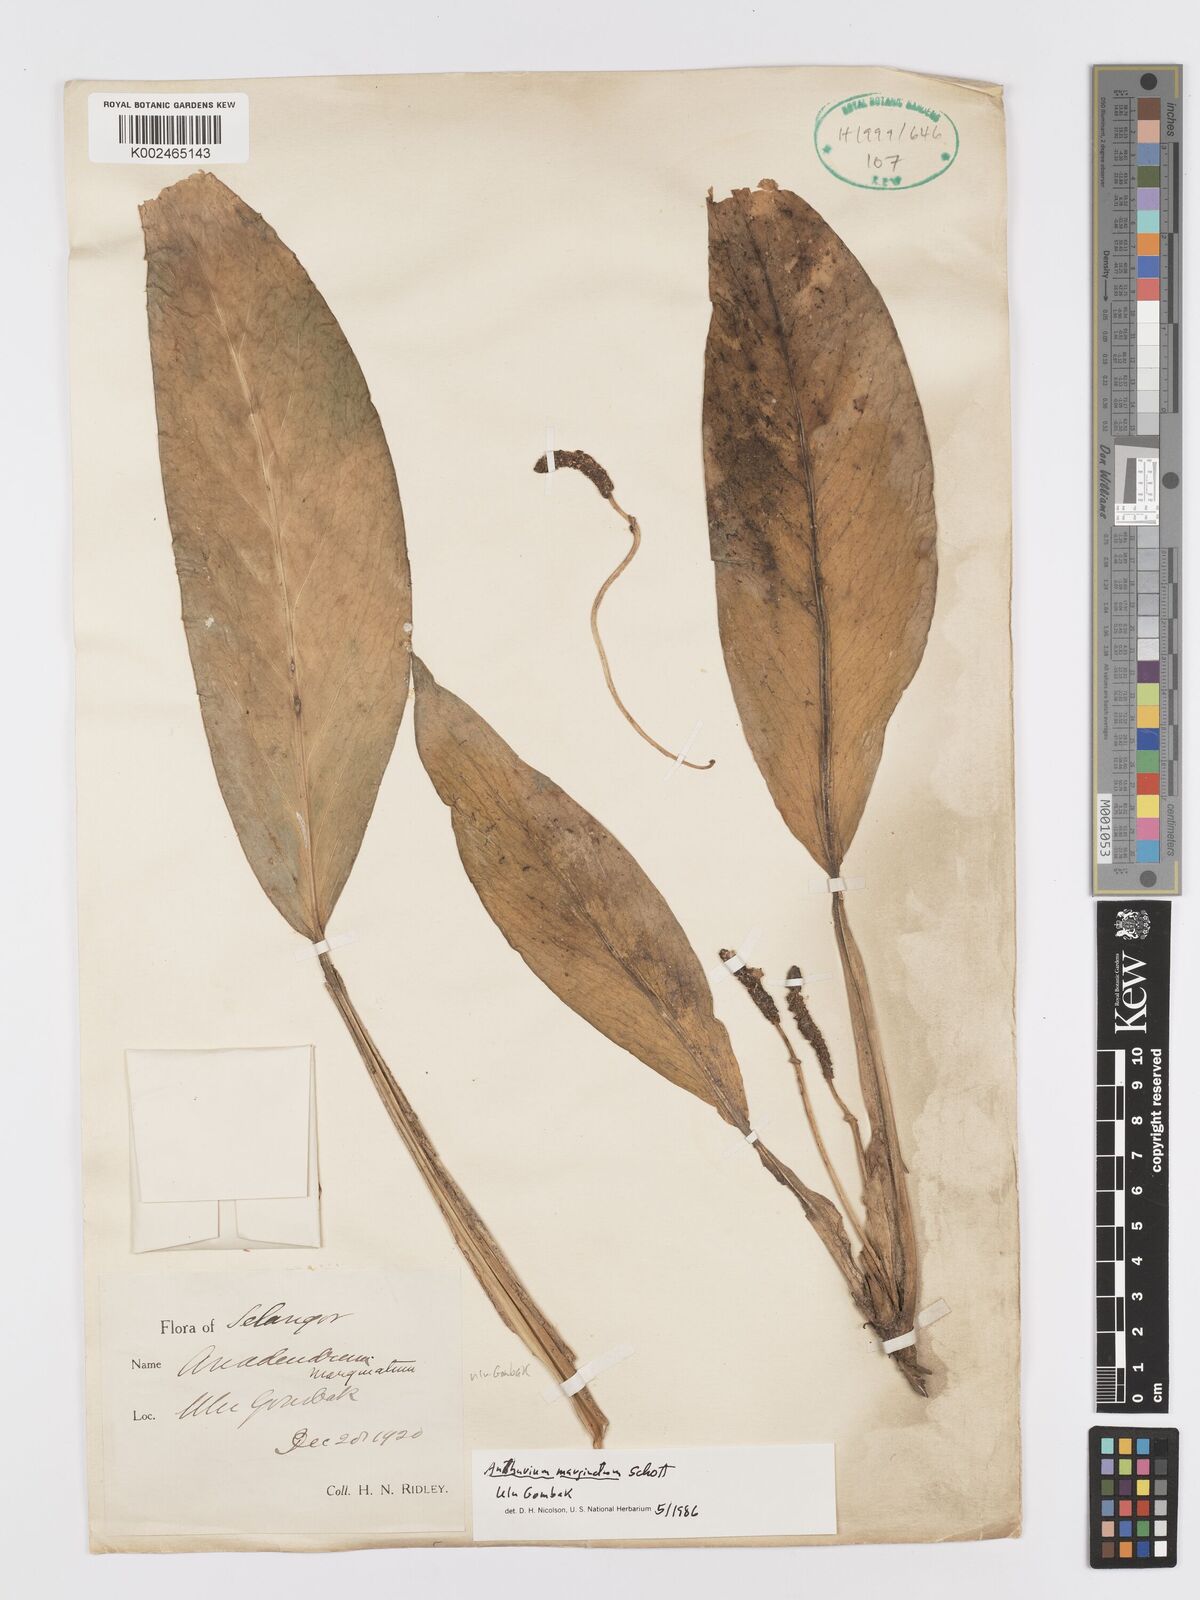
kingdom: Plantae
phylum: Tracheophyta
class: Liliopsida
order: Alismatales
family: Araceae
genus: Anadendrum
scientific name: Anadendrum microstachyum
